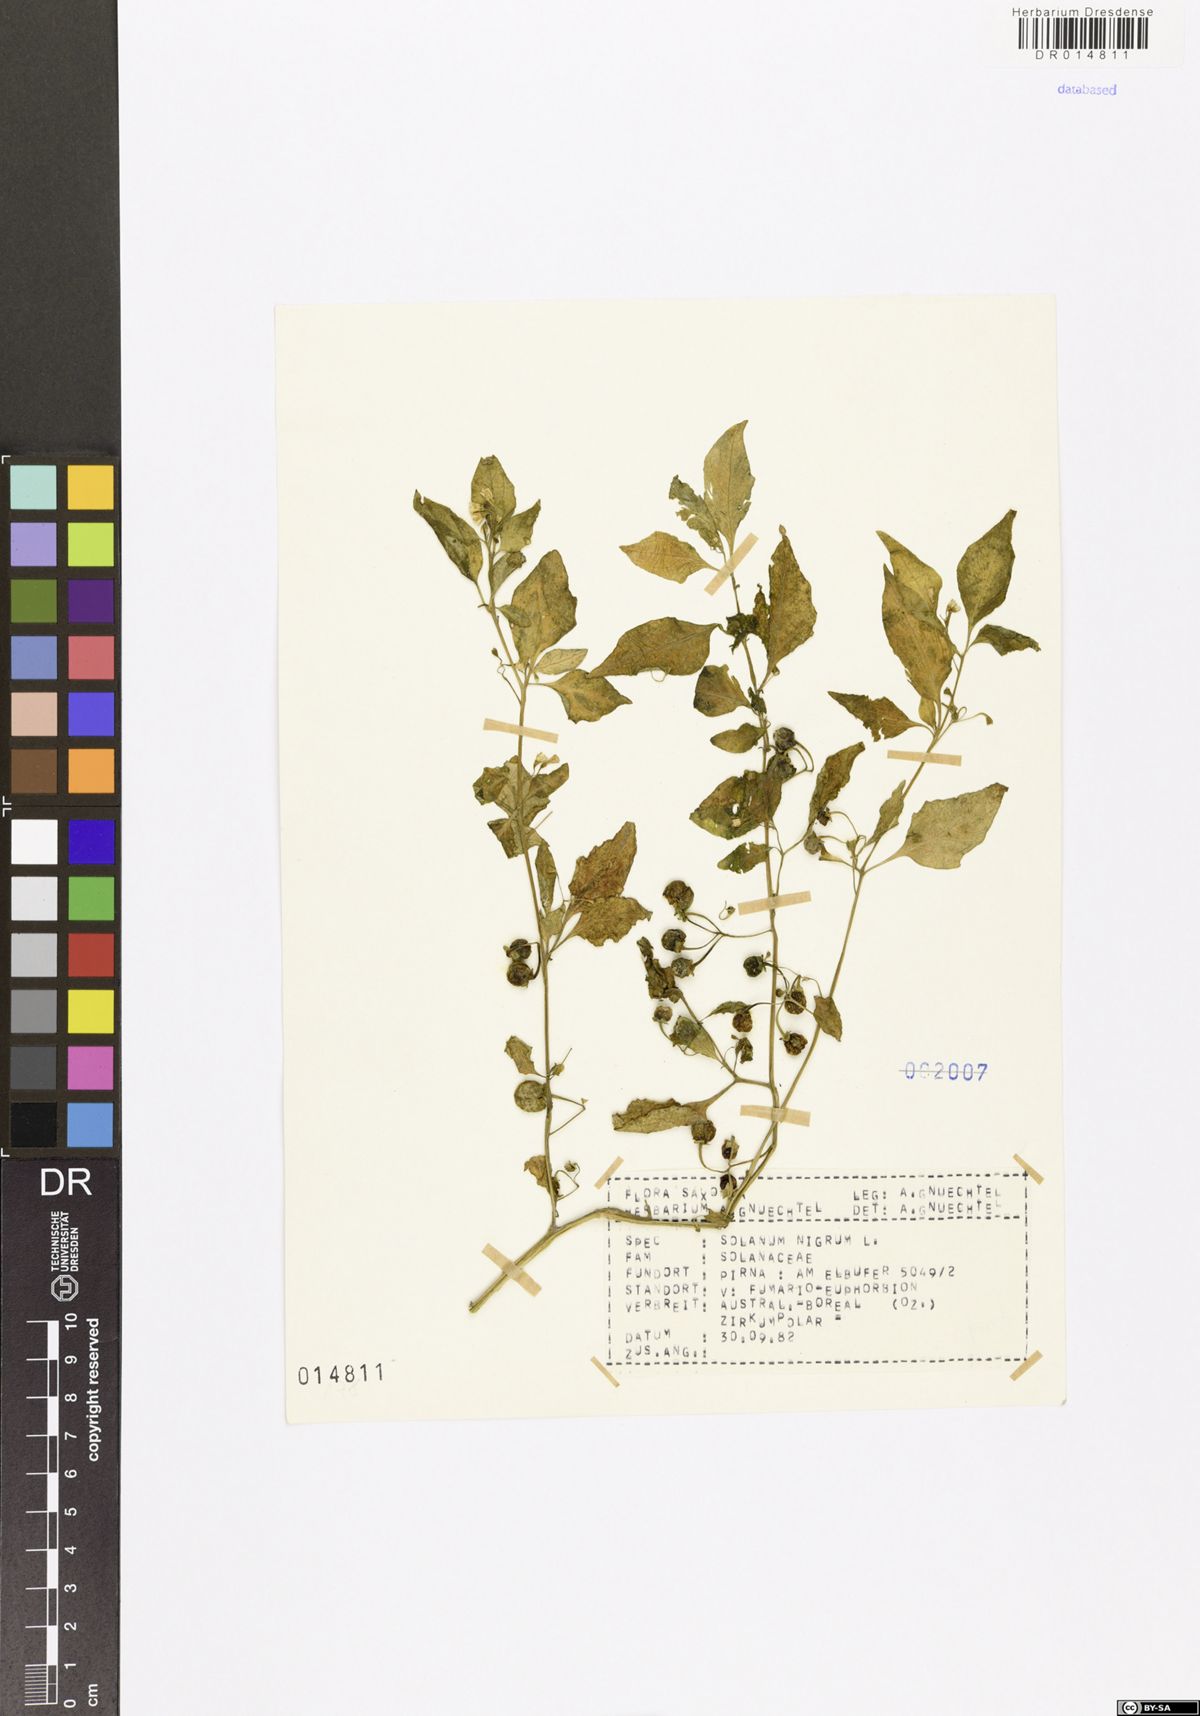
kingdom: Plantae
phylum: Tracheophyta
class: Magnoliopsida
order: Solanales
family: Solanaceae
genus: Solanum
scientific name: Solanum nigrum
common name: Black nightshade
